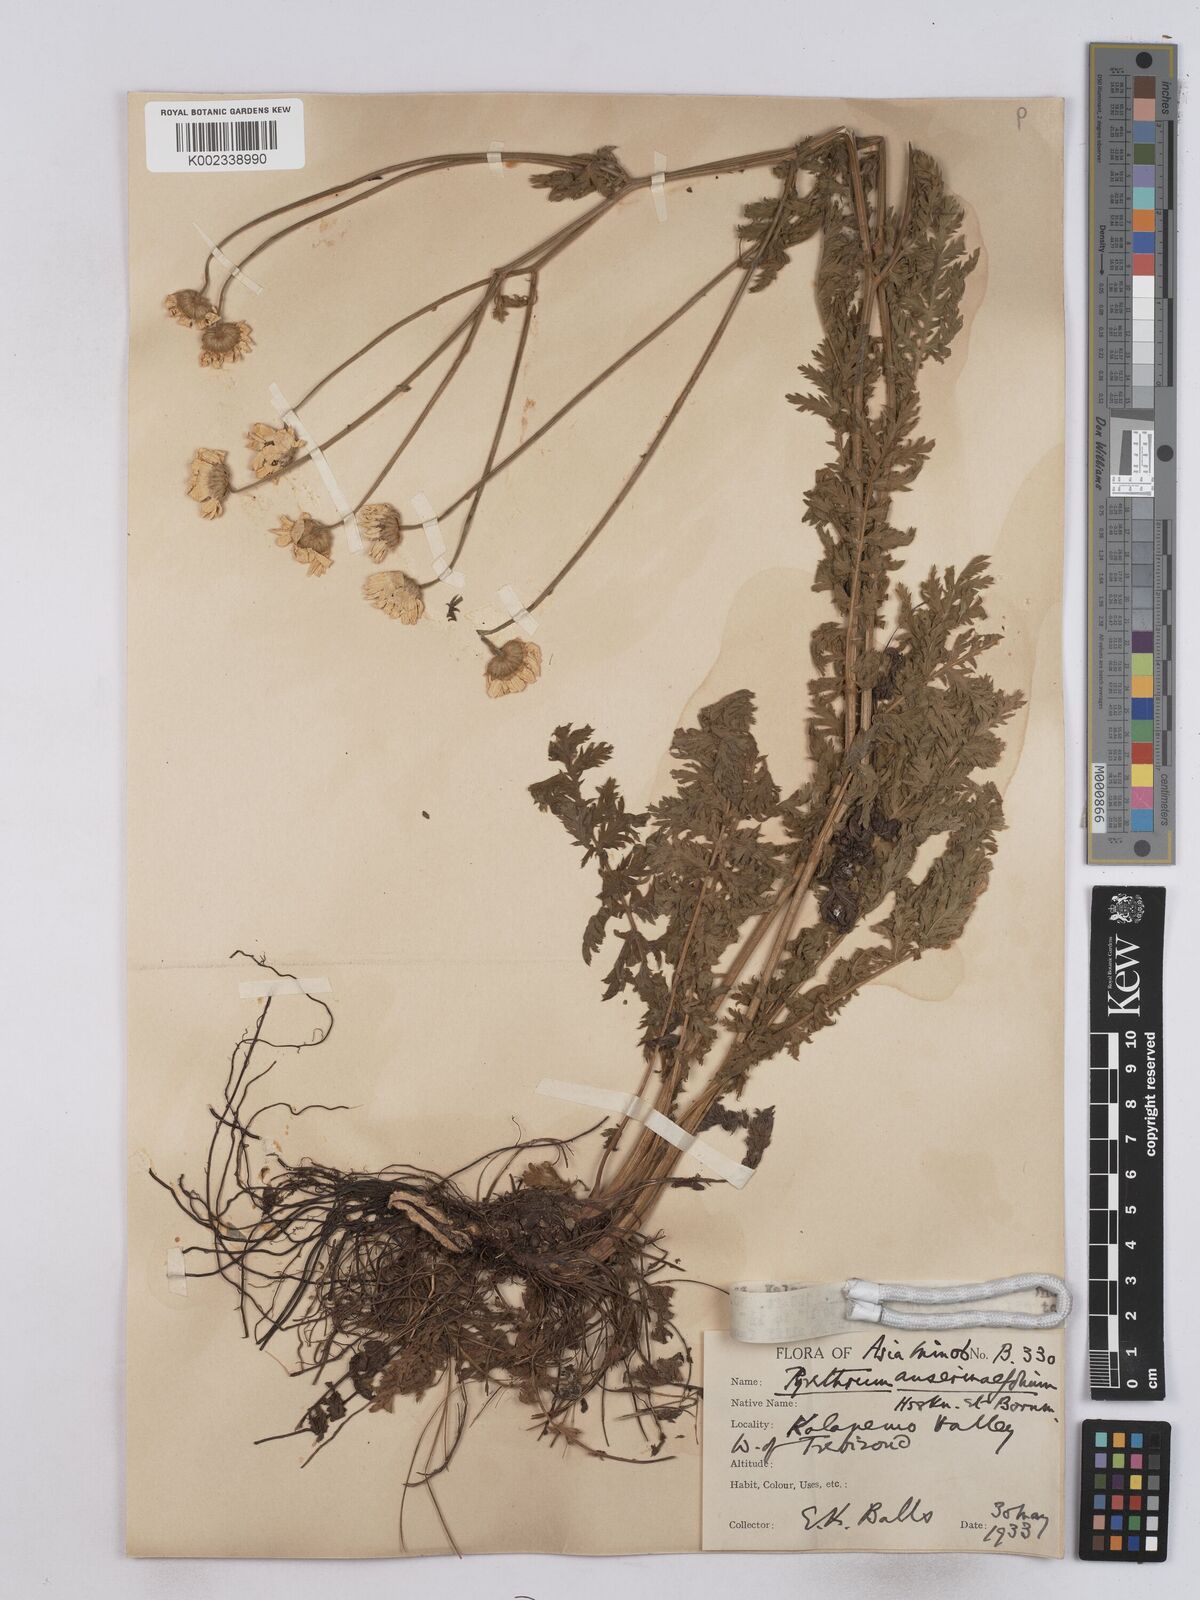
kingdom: Plantae
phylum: Tracheophyta
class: Magnoliopsida
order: Asterales
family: Asteraceae
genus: Tanacetum
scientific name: Tanacetum
